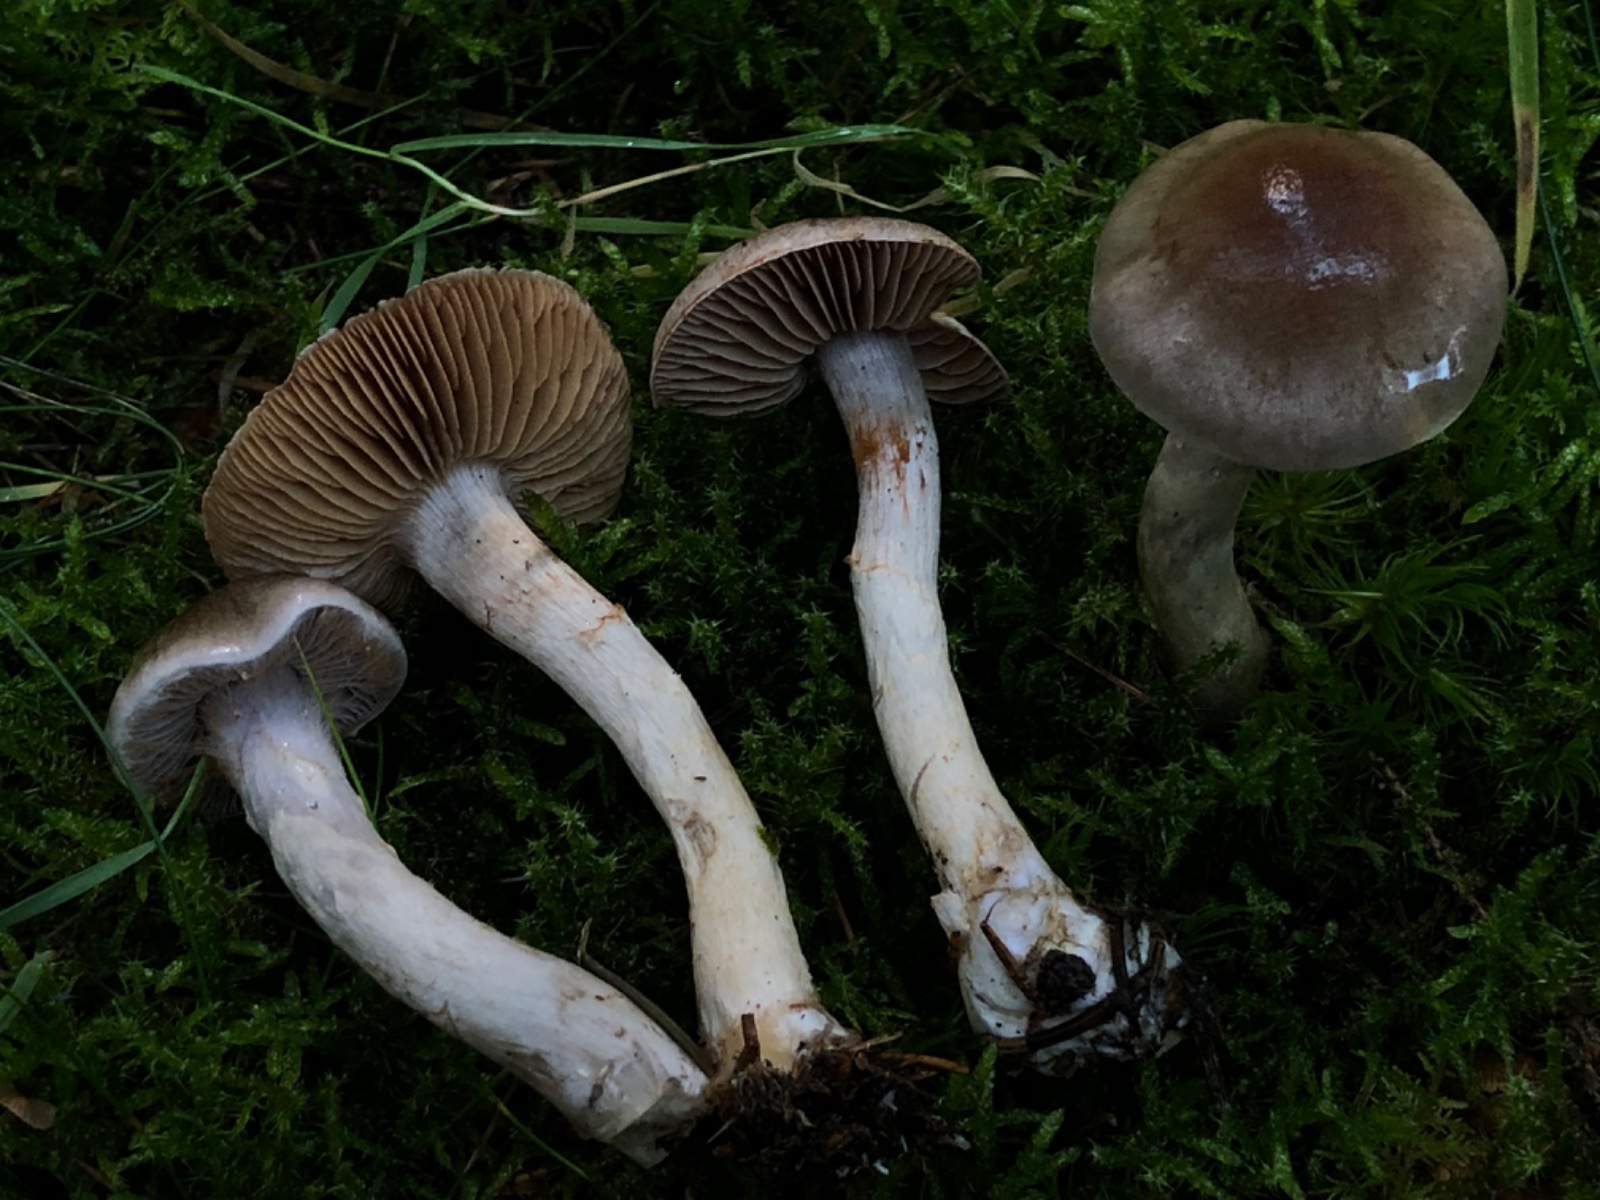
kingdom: Fungi
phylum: Basidiomycota
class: Agaricomycetes
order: Agaricales
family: Cortinariaceae
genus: Cortinarius
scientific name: Cortinarius
